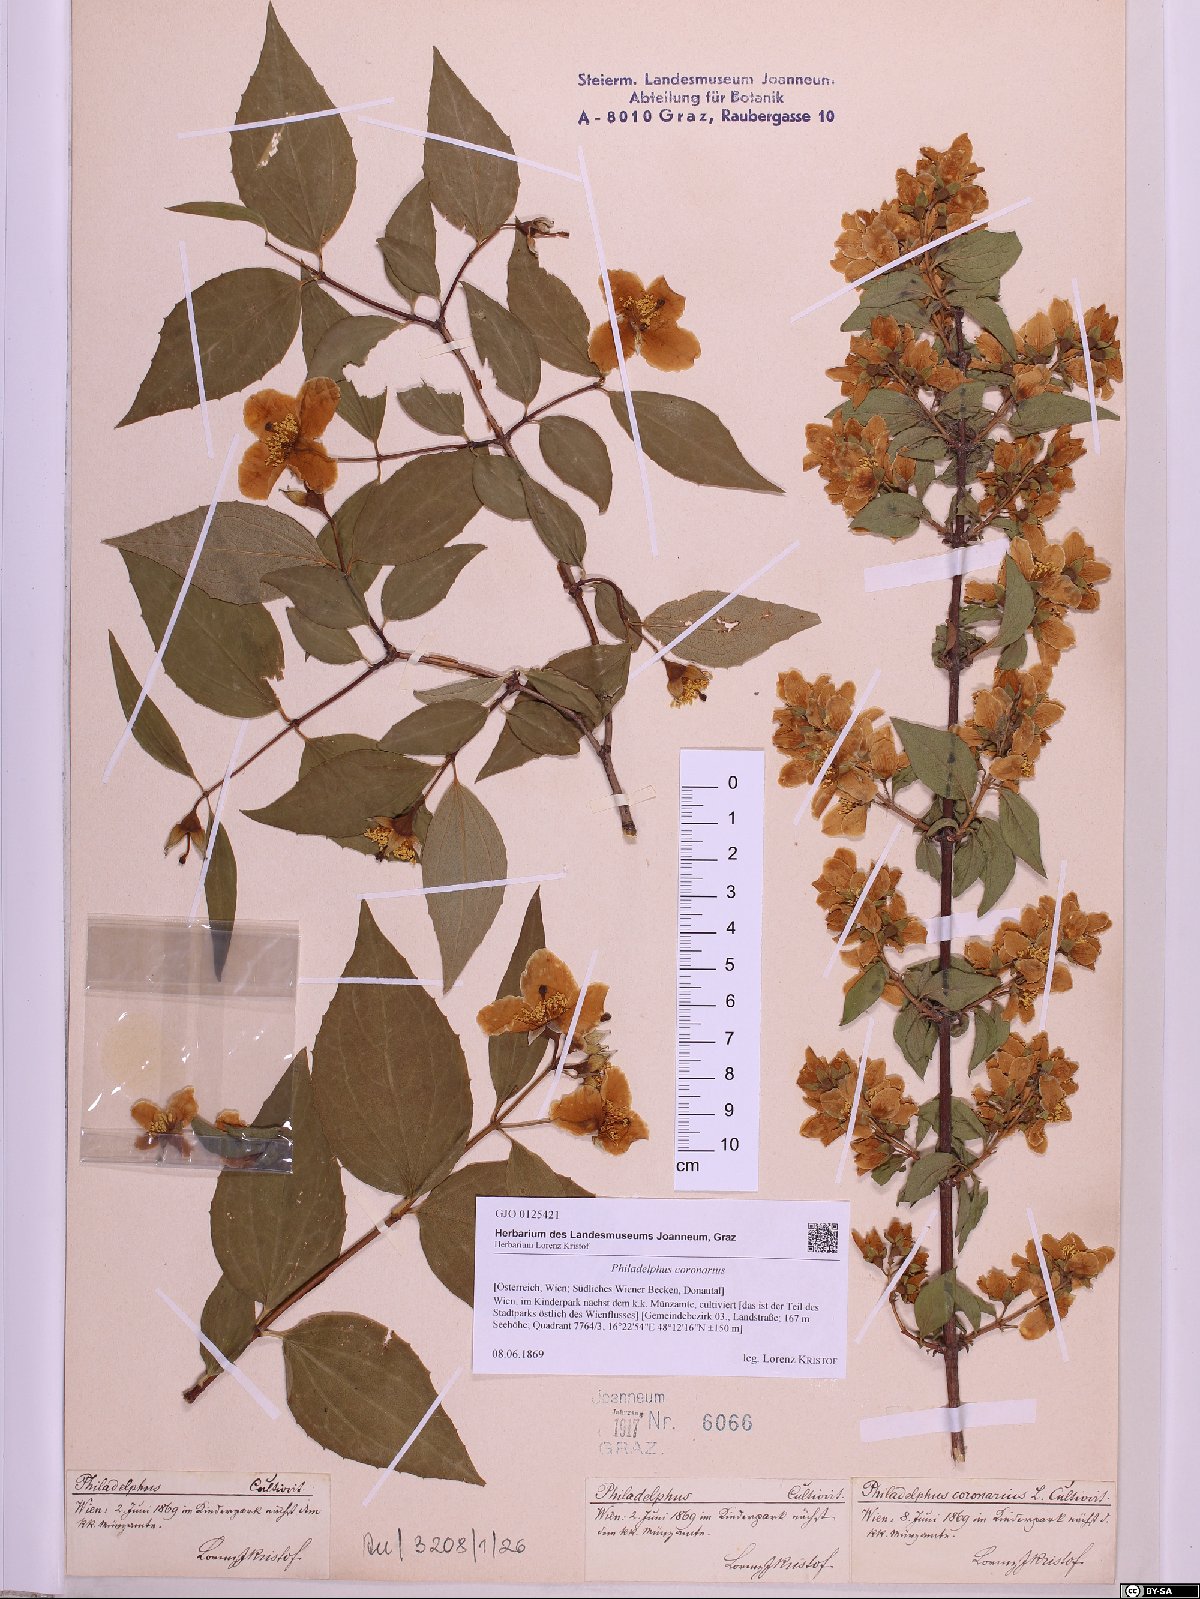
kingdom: Plantae
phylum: Tracheophyta
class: Magnoliopsida
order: Cornales
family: Hydrangeaceae
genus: Philadelphus
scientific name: Philadelphus coronarius
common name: Mock orange
